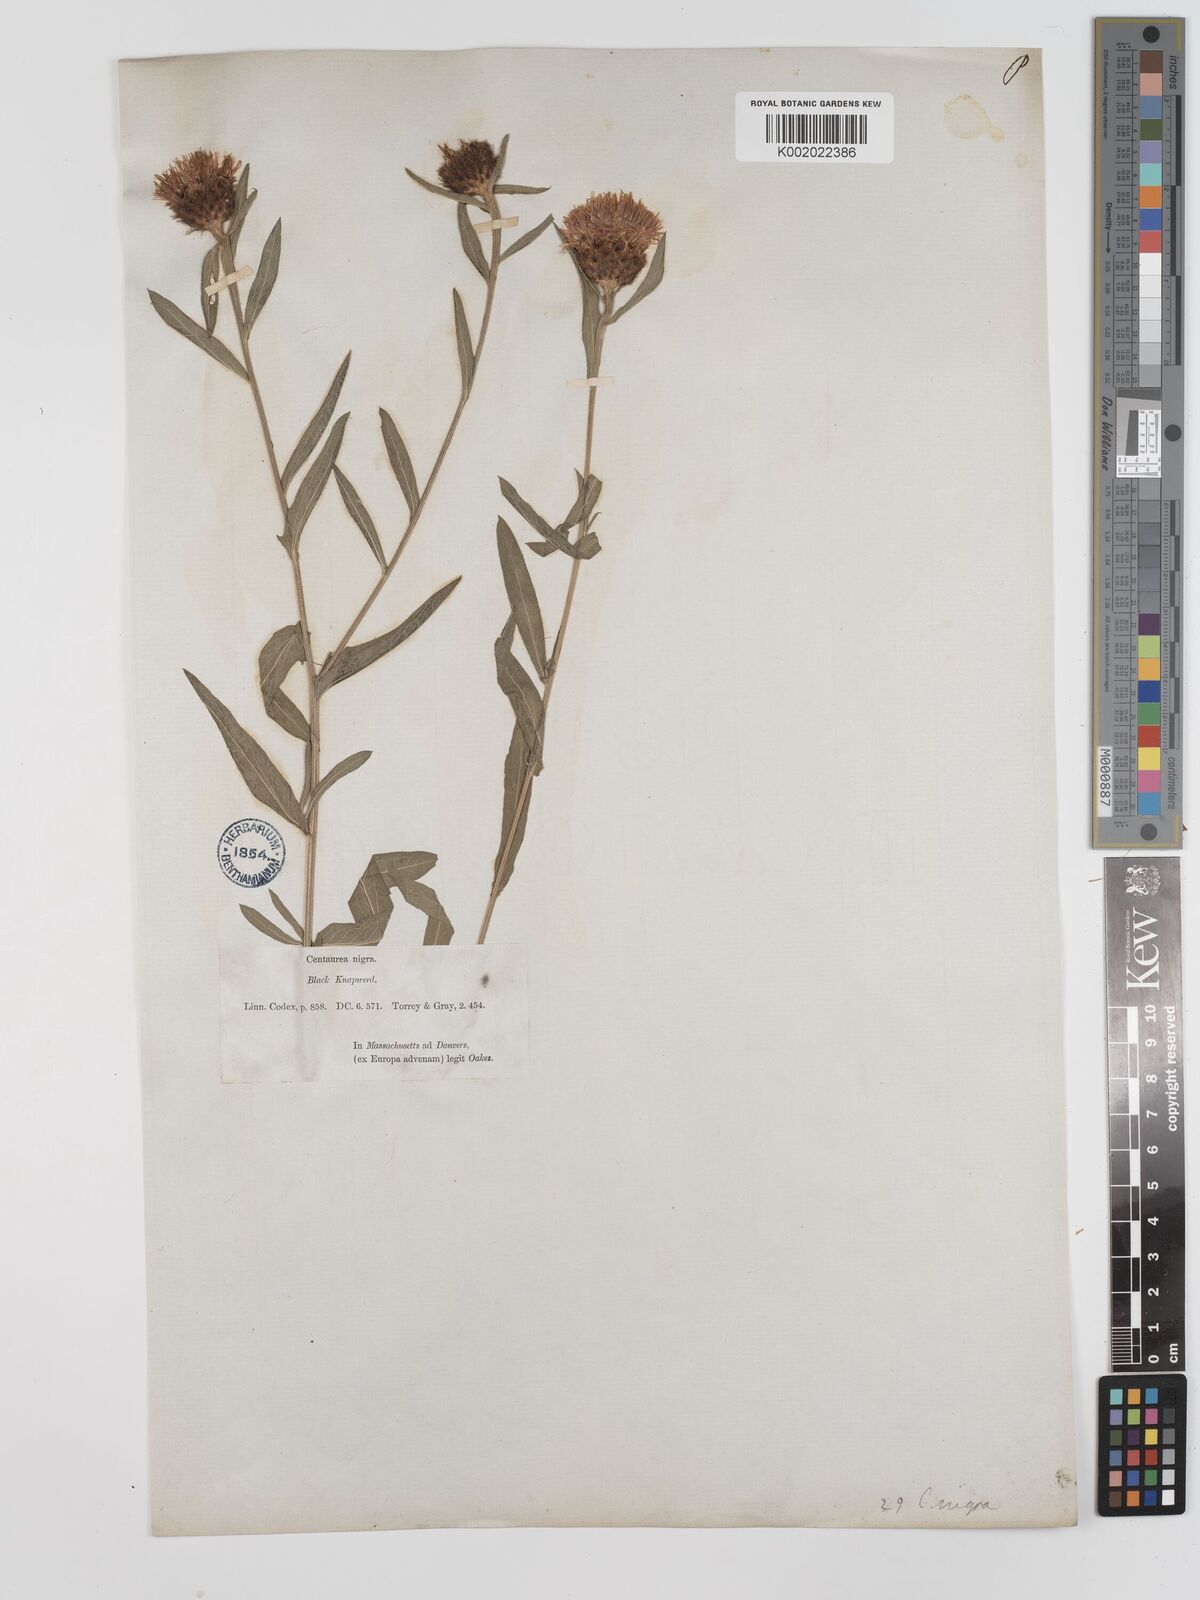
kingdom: Plantae
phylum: Tracheophyta
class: Magnoliopsida
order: Asterales
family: Asteraceae
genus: Centaurea
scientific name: Centaurea nigra
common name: Lesser knapweed
